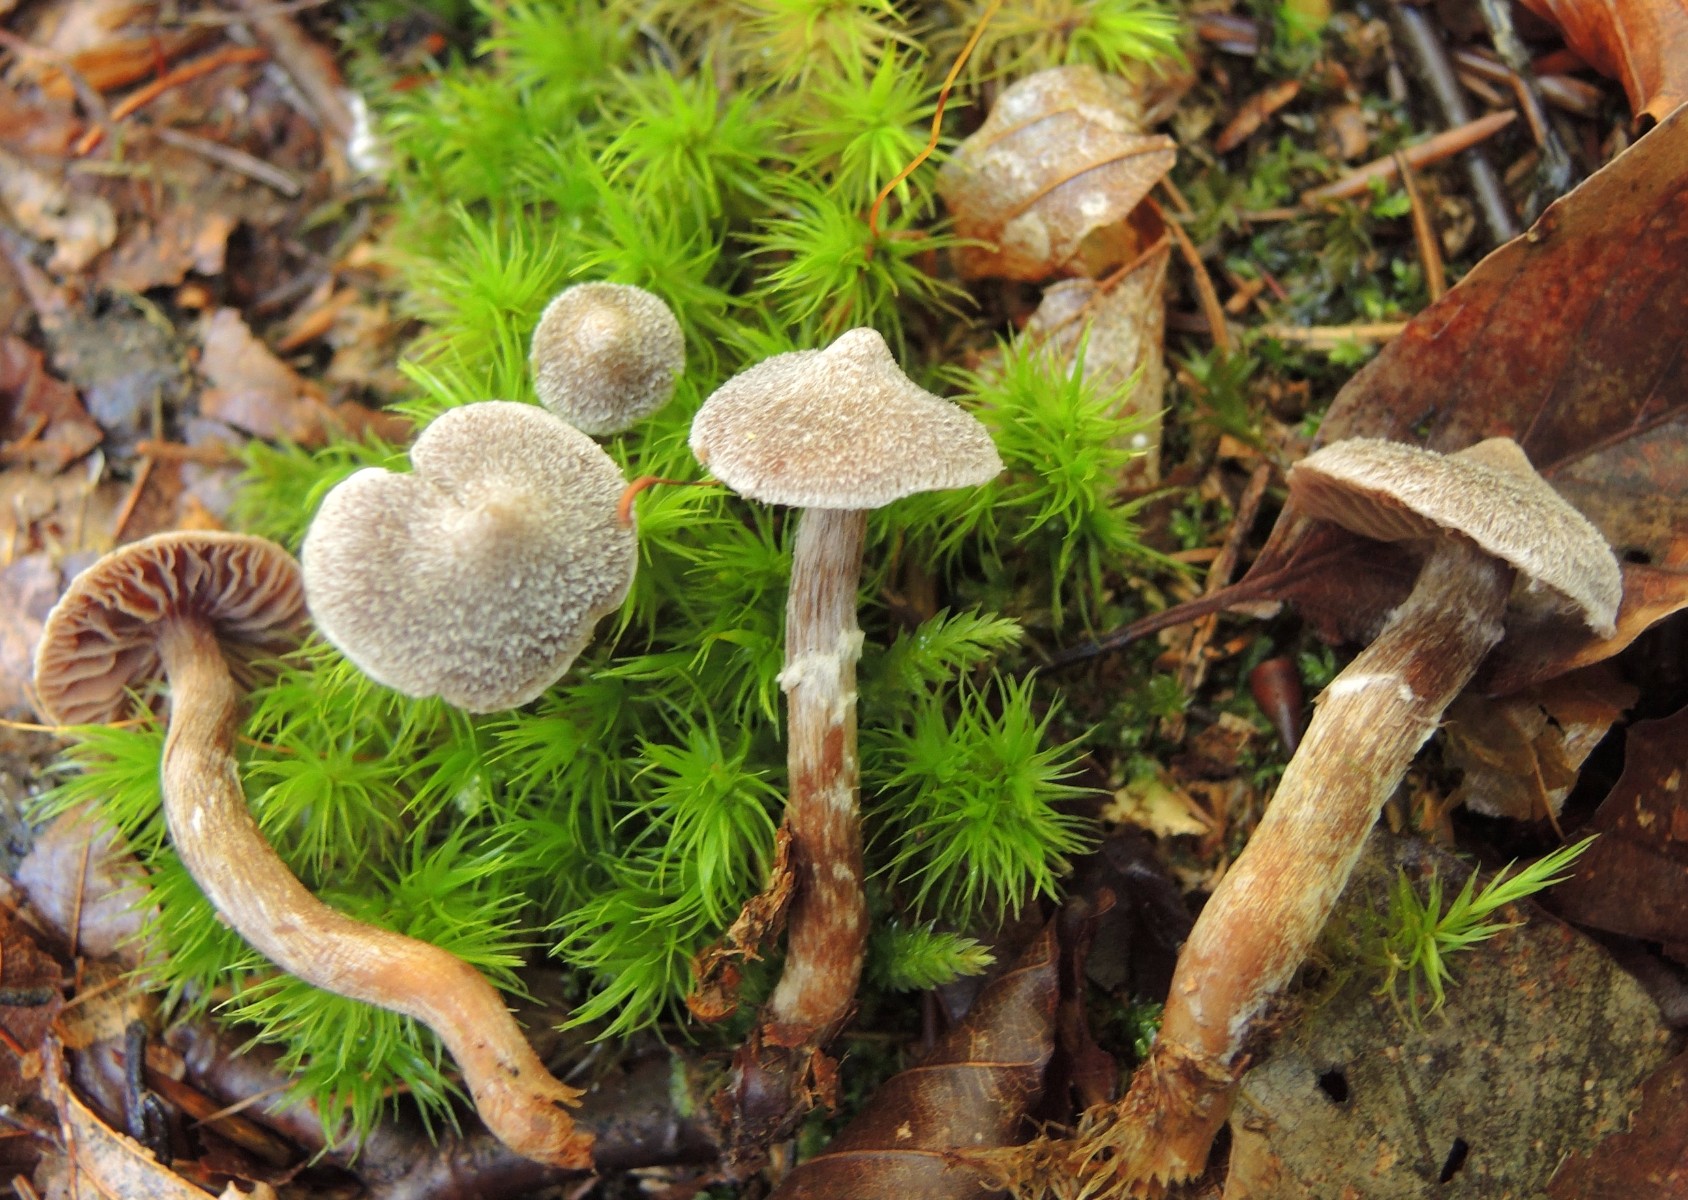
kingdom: Fungi
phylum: Basidiomycota
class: Agaricomycetes
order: Agaricales
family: Cortinariaceae
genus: Cortinarius
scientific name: Cortinarius
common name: pelargonie-slørhat
